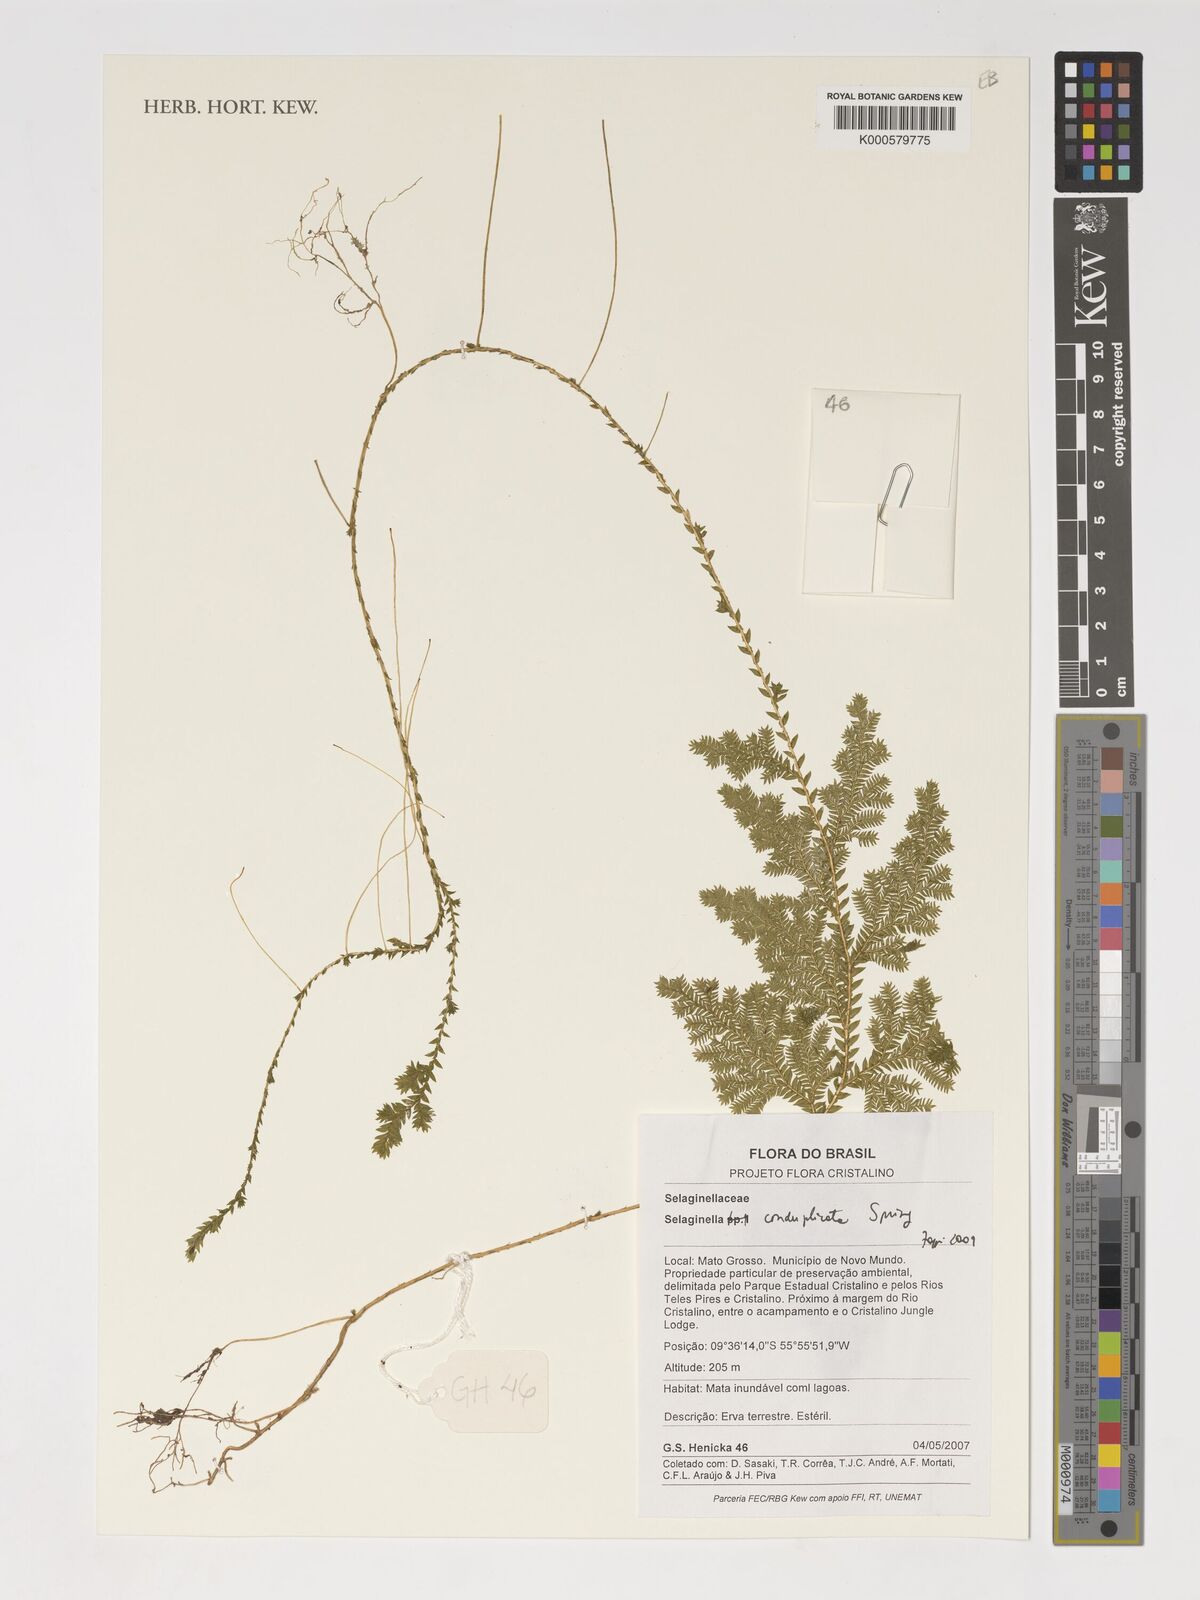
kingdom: Plantae
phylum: Tracheophyta
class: Lycopodiopsida
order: Selaginellales
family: Selaginellaceae
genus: Selaginella
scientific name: Selaginella conduplicata
